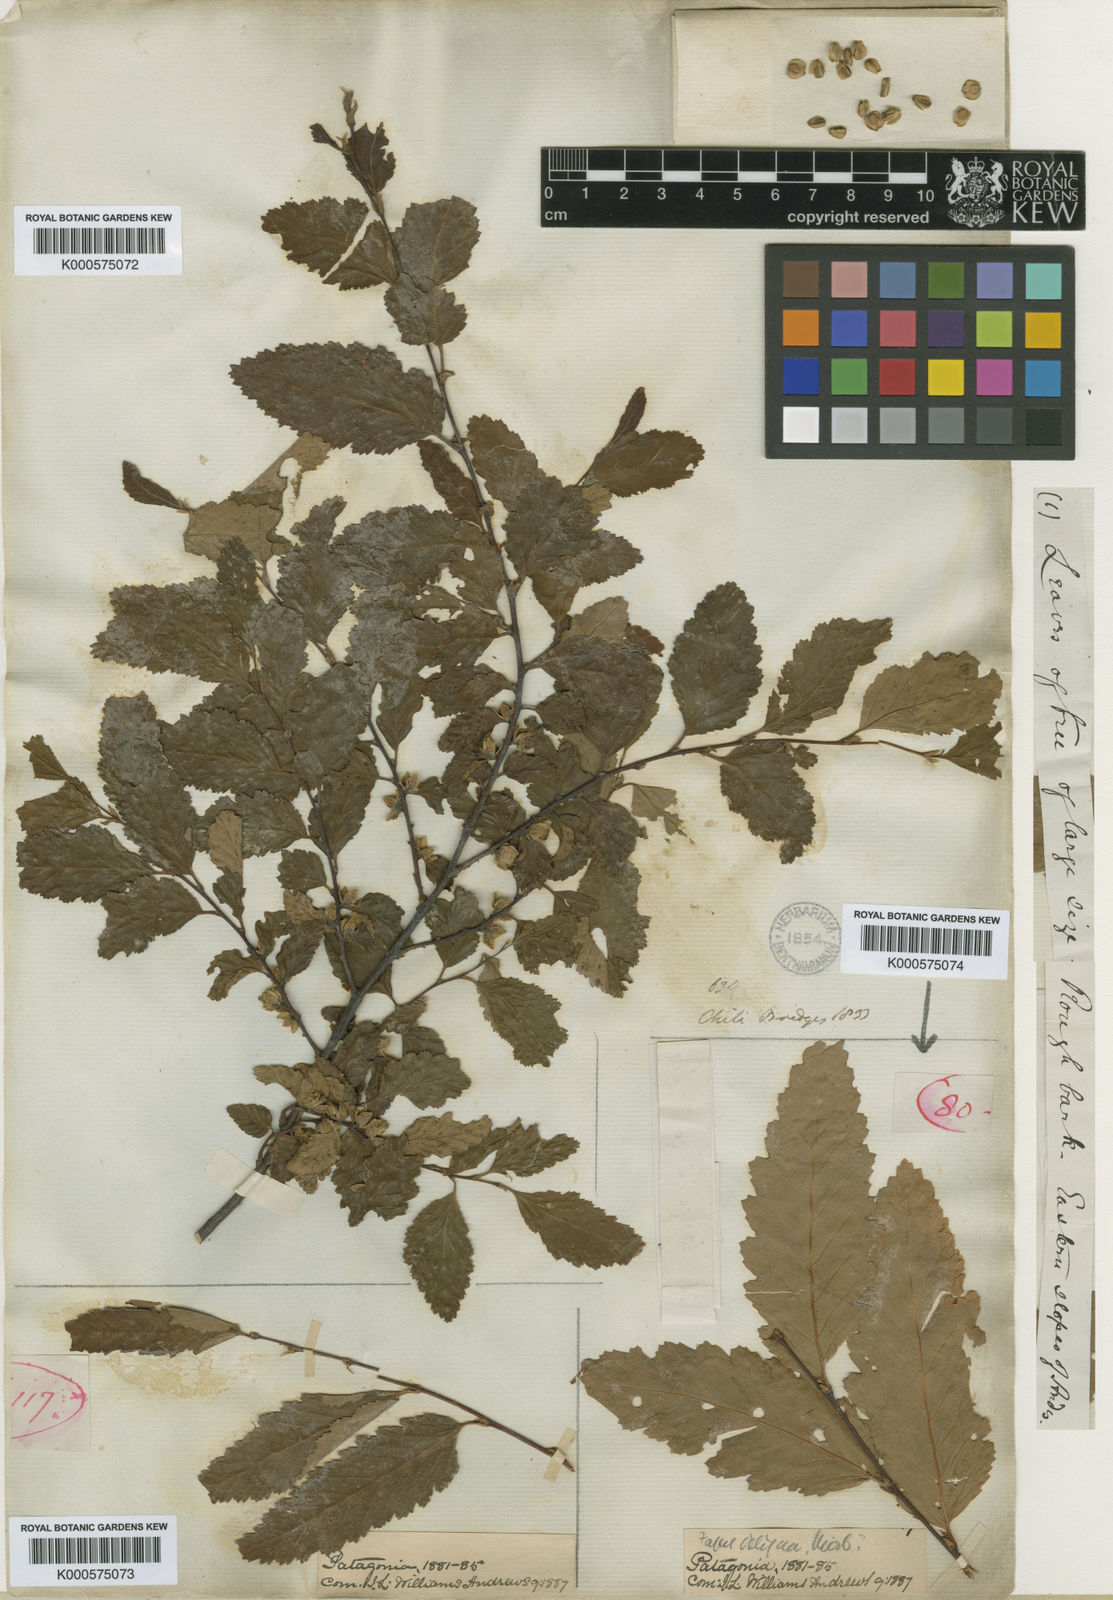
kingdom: Plantae
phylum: Tracheophyta
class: Magnoliopsida
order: Fagales
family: Nothofagaceae
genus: Nothofagus
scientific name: Nothofagus obliqua
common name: Roble beech
